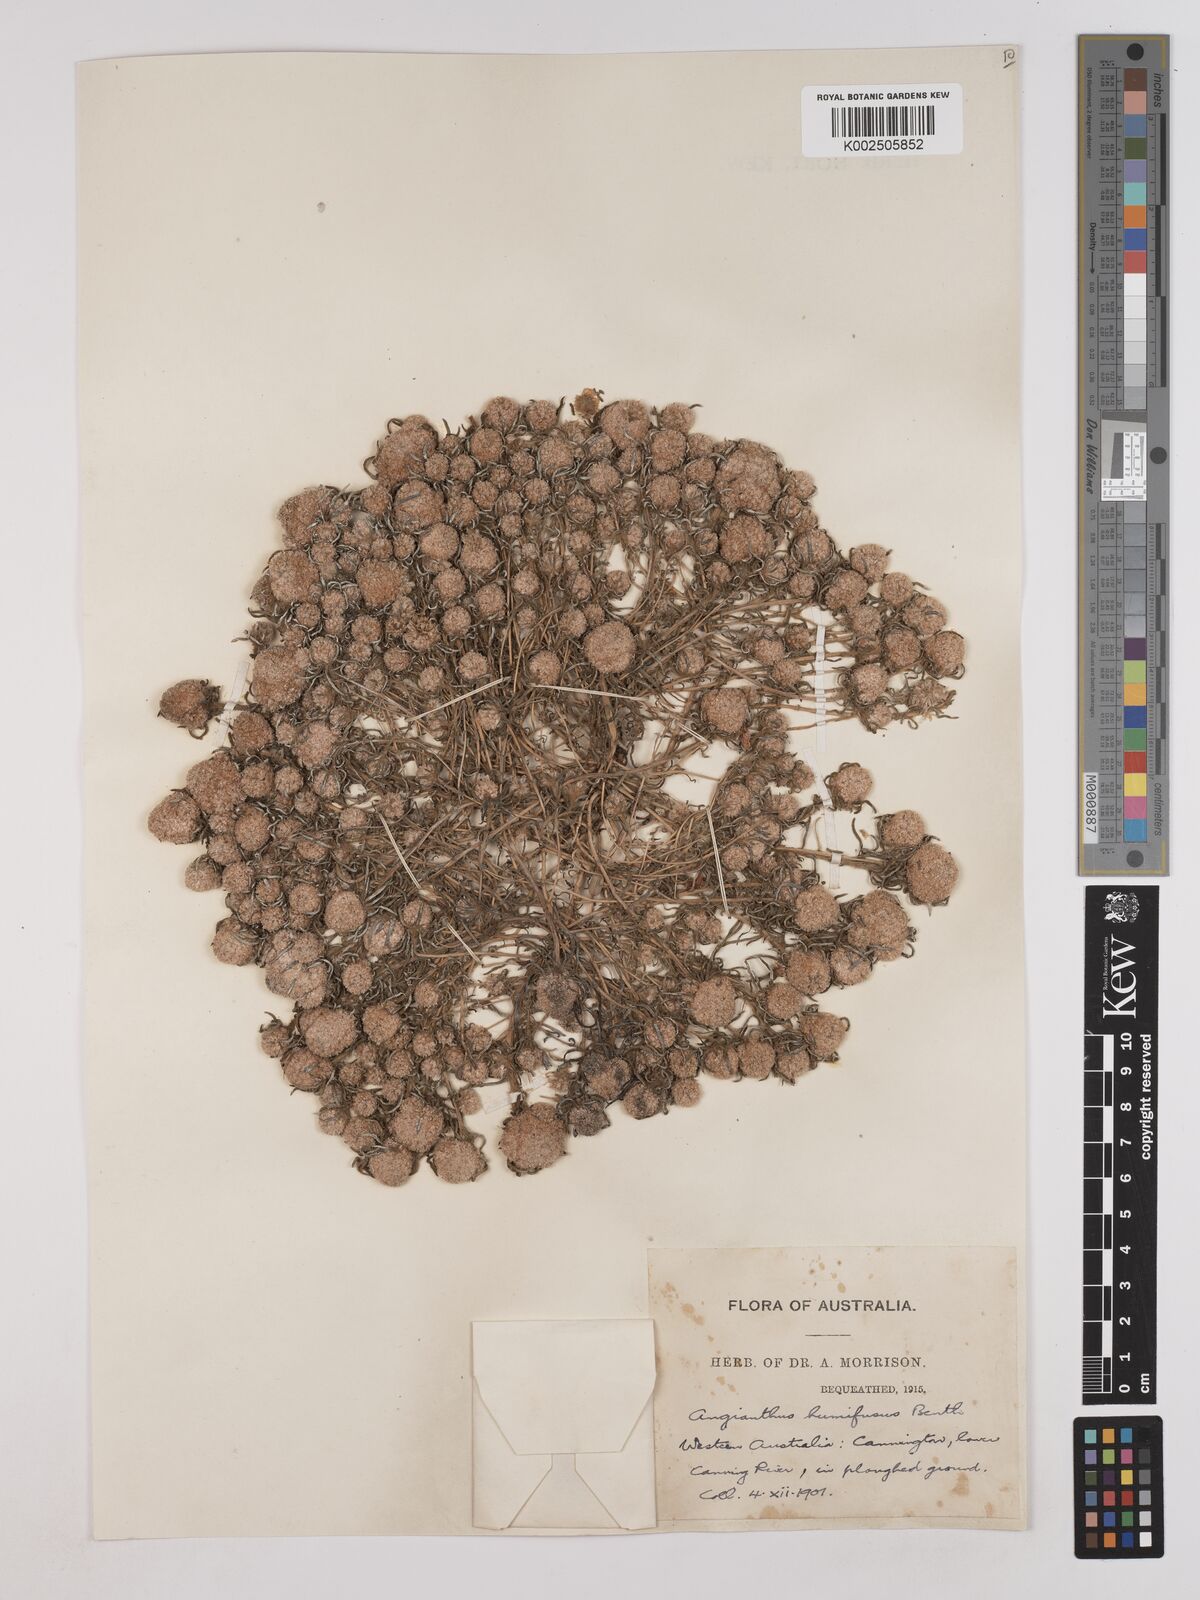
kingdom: Plantae
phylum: Tracheophyta
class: Magnoliopsida
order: Asterales
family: Asteraceae
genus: Siloxerus
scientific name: Siloxerus humifusus
